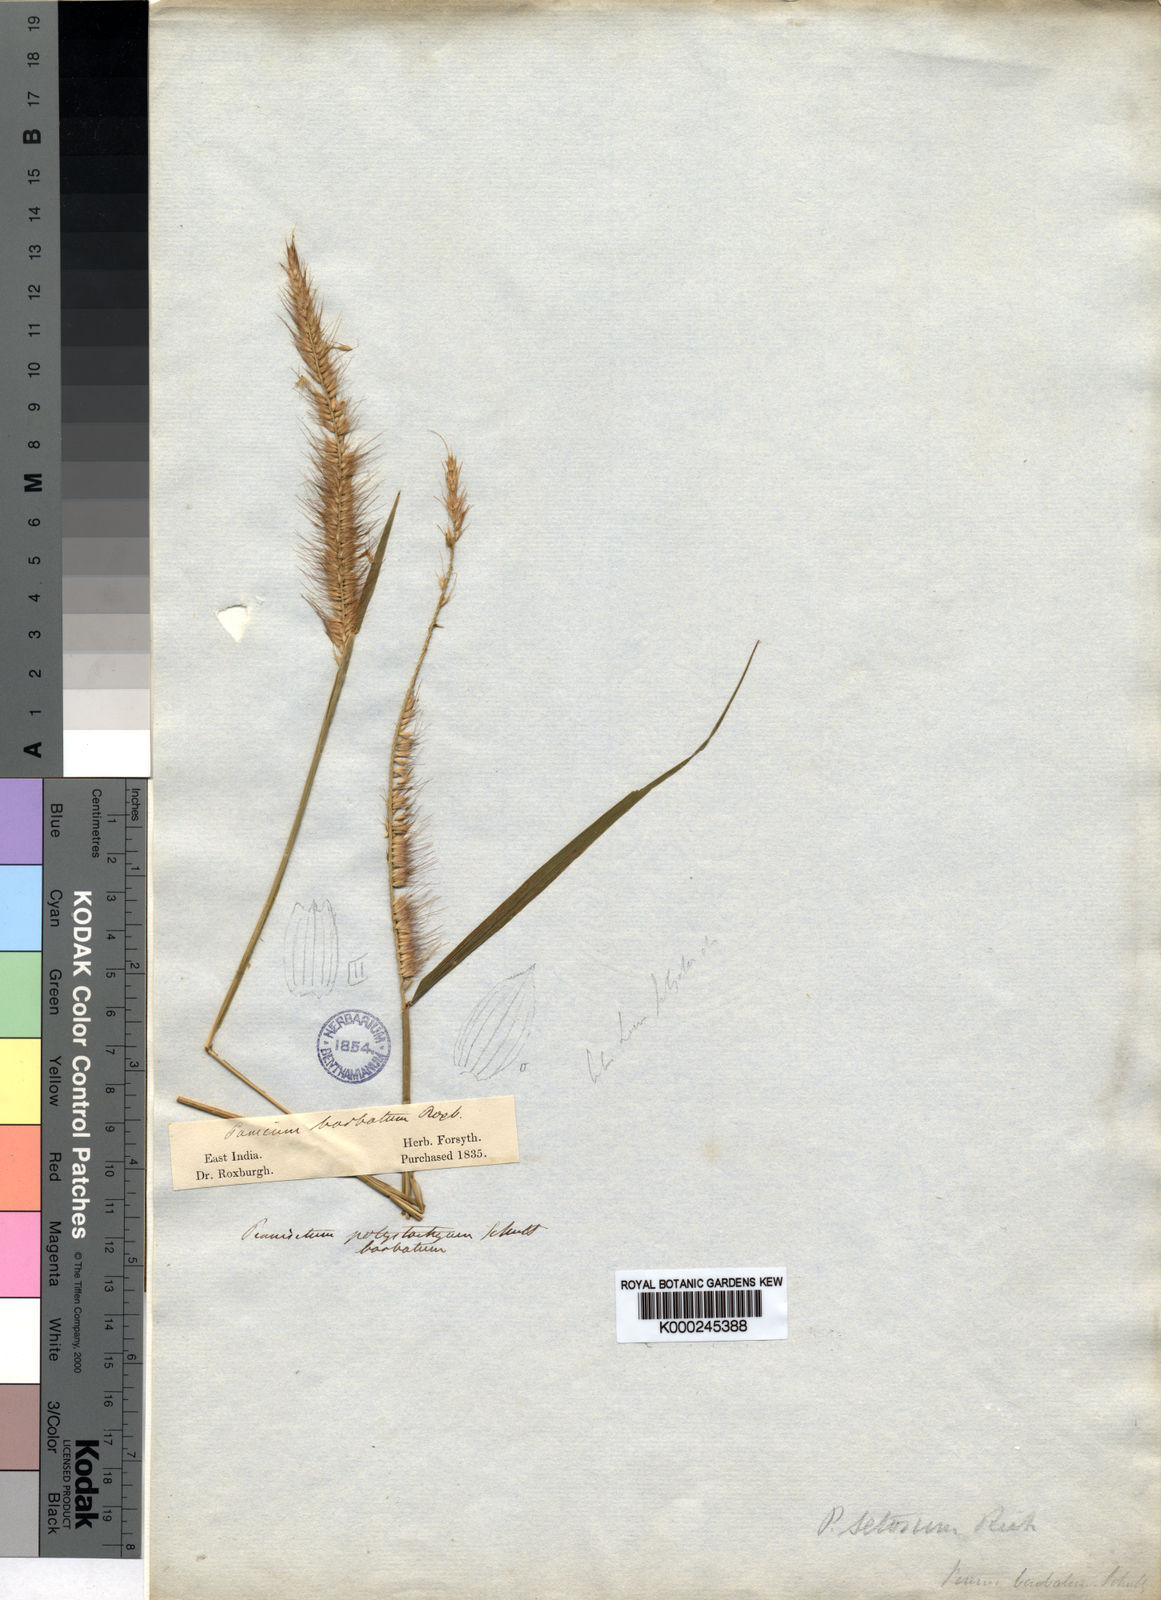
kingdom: Plantae
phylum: Tracheophyta
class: Liliopsida
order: Poales
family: Poaceae
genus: Setaria
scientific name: Setaria parviflora
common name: Knotroot bristle-grass
